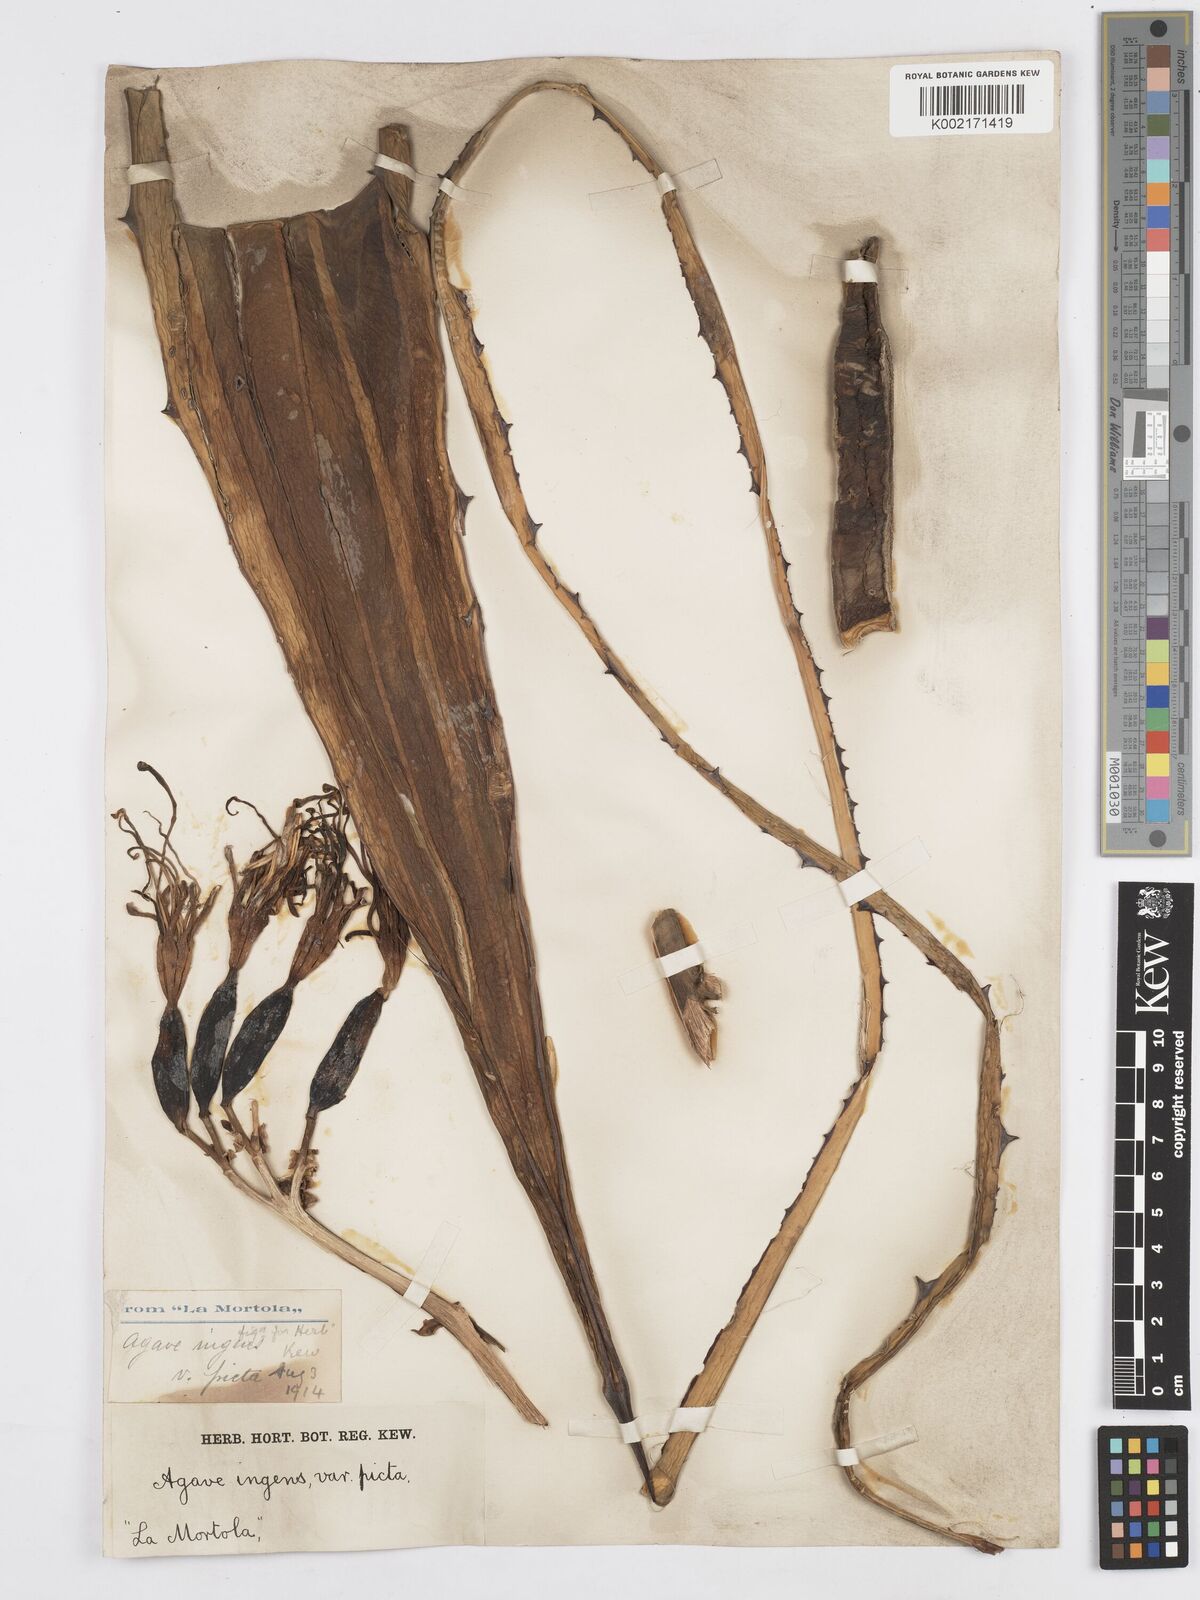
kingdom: Plantae
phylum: Tracheophyta
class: Liliopsida
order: Asparagales
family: Asparagaceae
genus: Agave
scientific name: Agave americana
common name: Centuryplant
